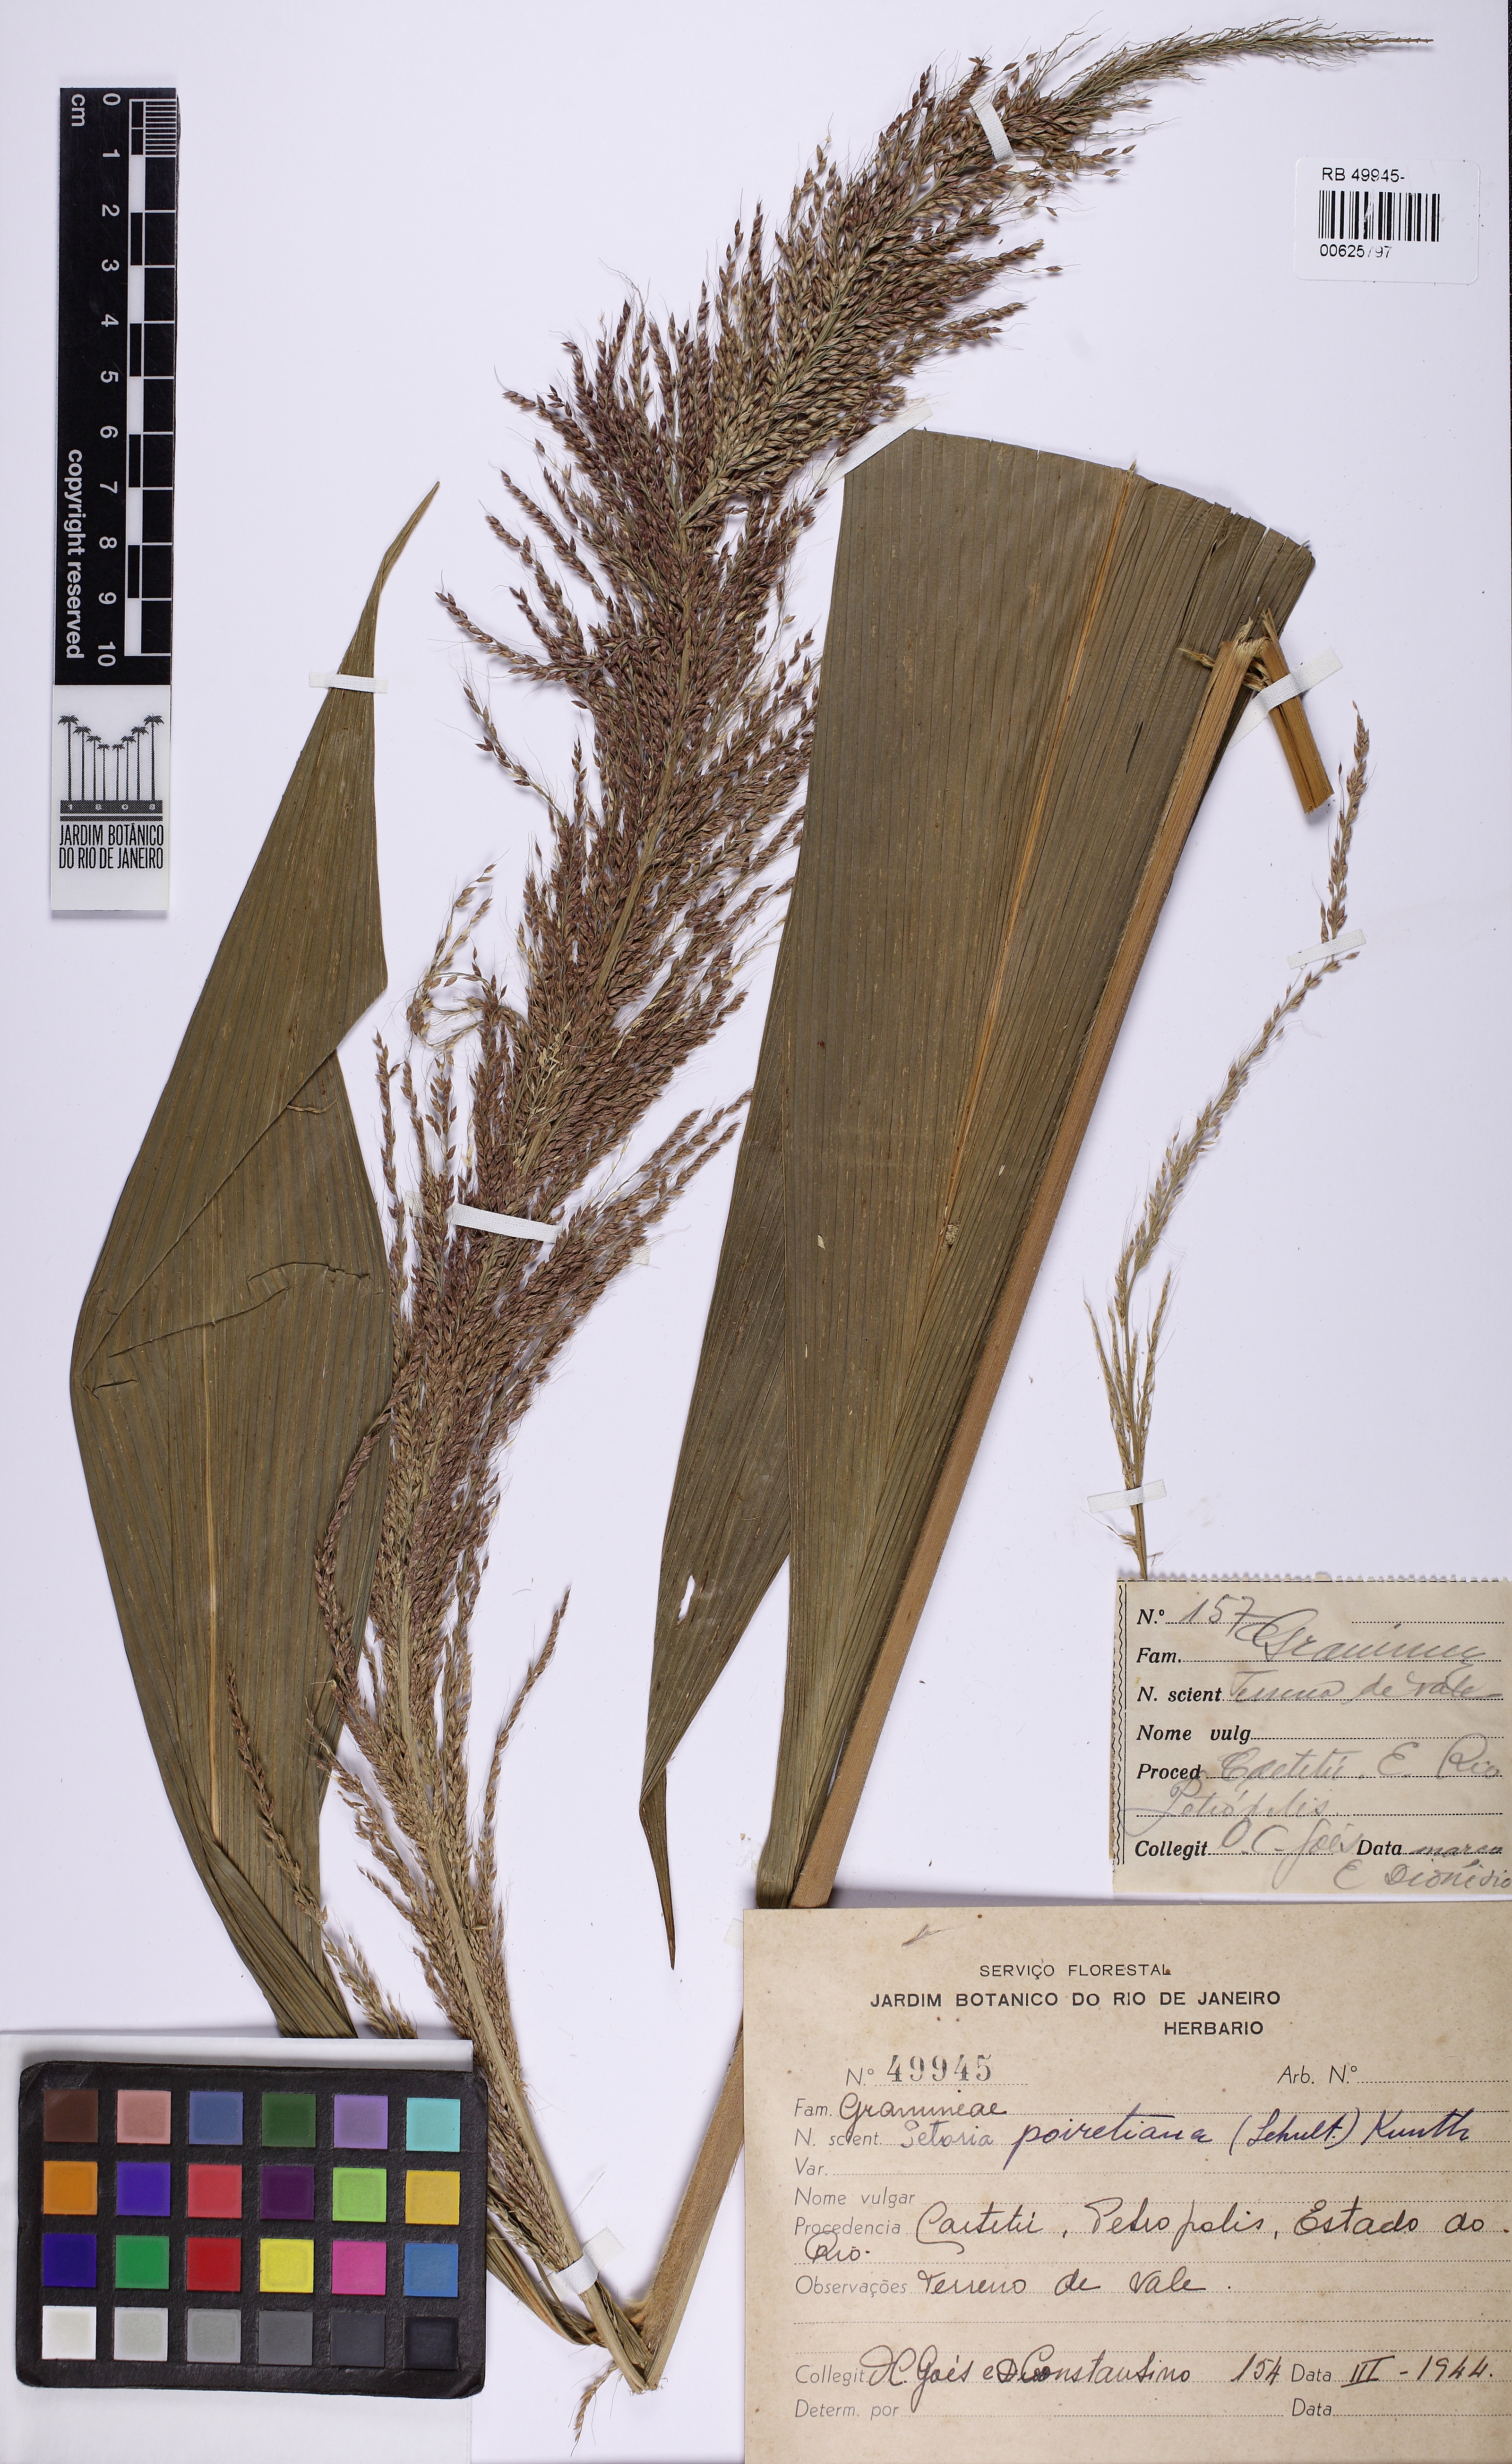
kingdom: Plantae
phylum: Tracheophyta
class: Liliopsida
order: Poales
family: Poaceae
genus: Setaria
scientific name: Setaria poiretiana
